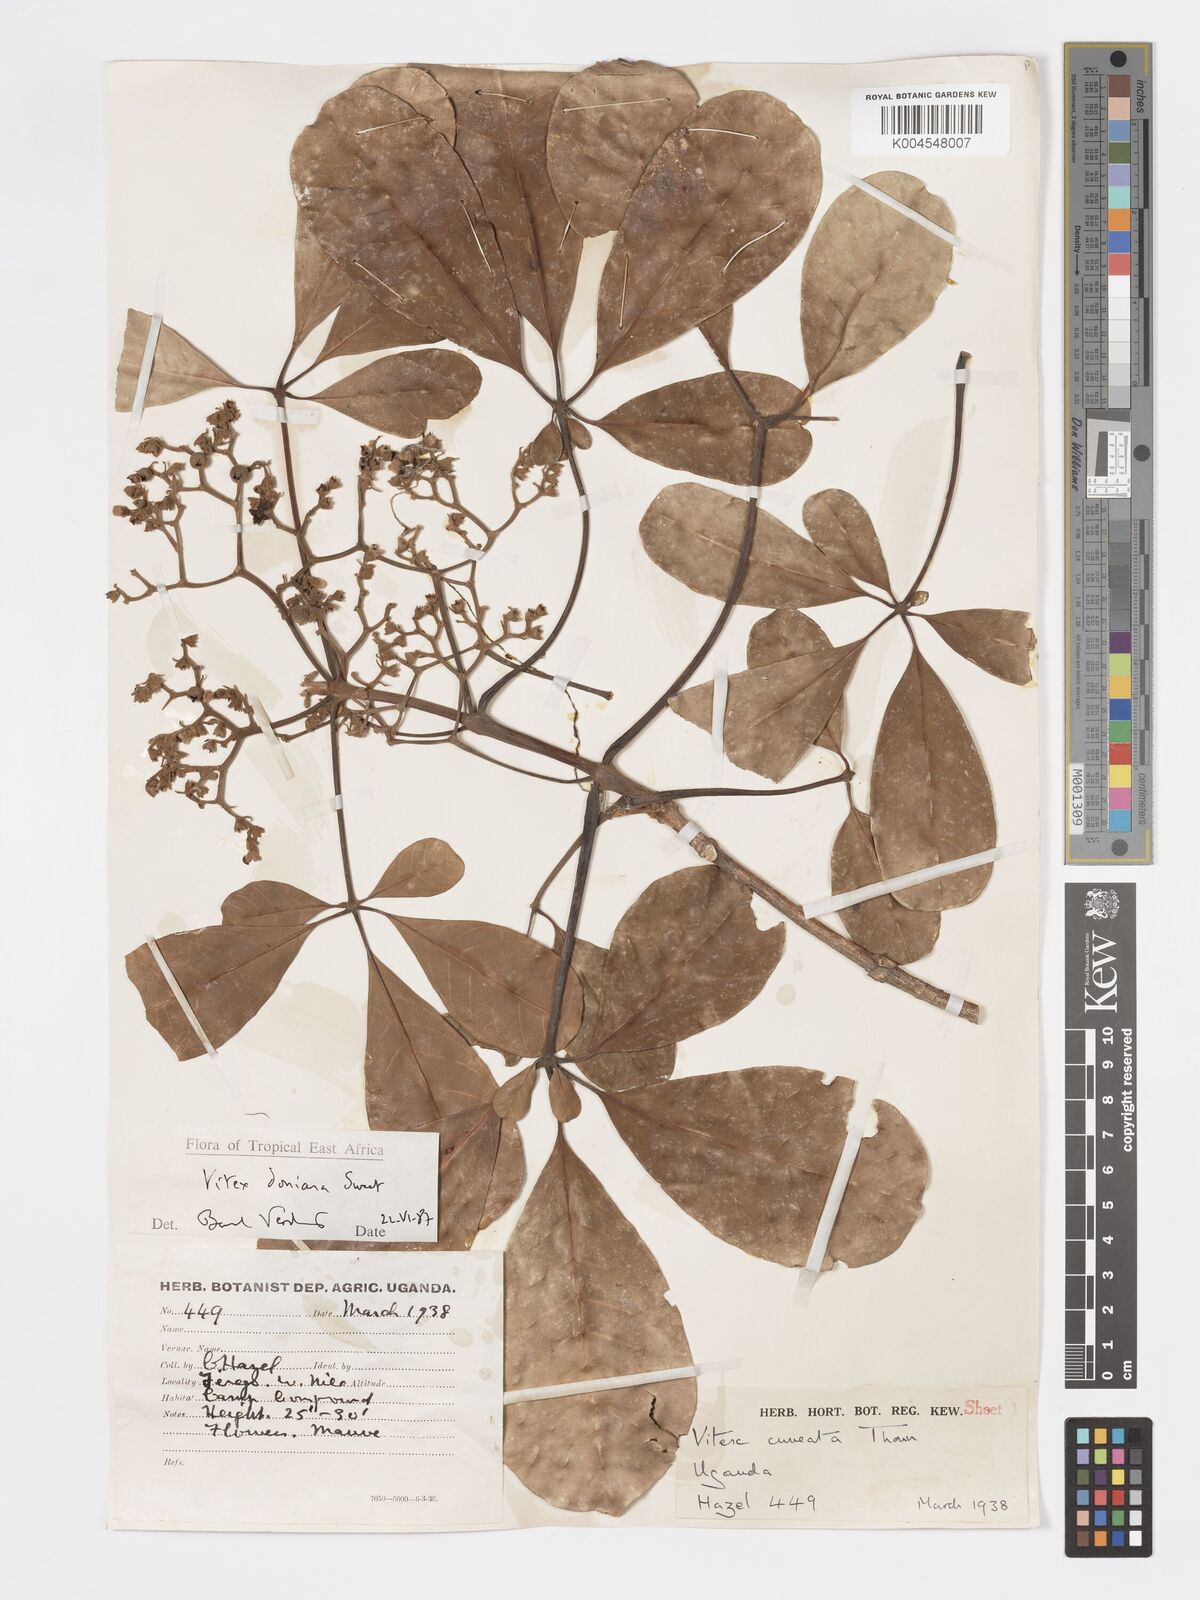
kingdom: Plantae
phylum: Tracheophyta
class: Magnoliopsida
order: Lamiales
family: Lamiaceae
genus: Vitex
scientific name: Vitex doniana
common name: Black plum
